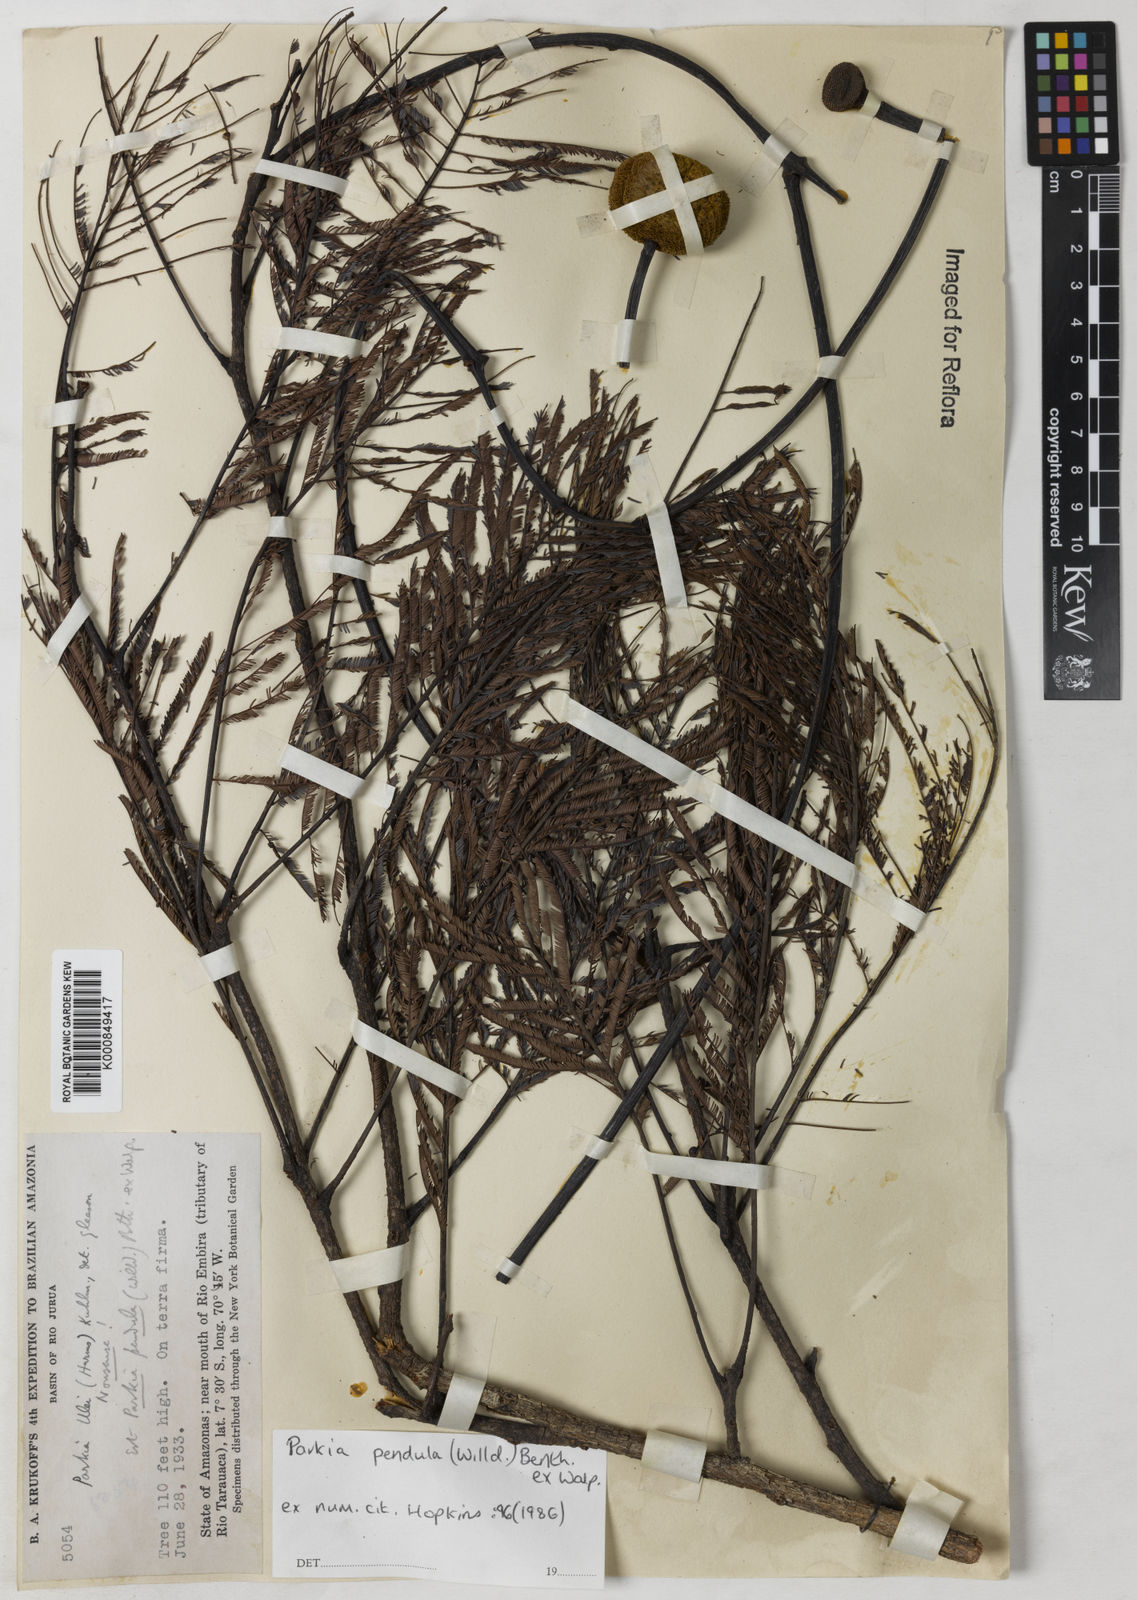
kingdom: Plantae
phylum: Tracheophyta
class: Magnoliopsida
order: Fabales
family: Fabaceae
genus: Parkia
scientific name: Parkia pendula
